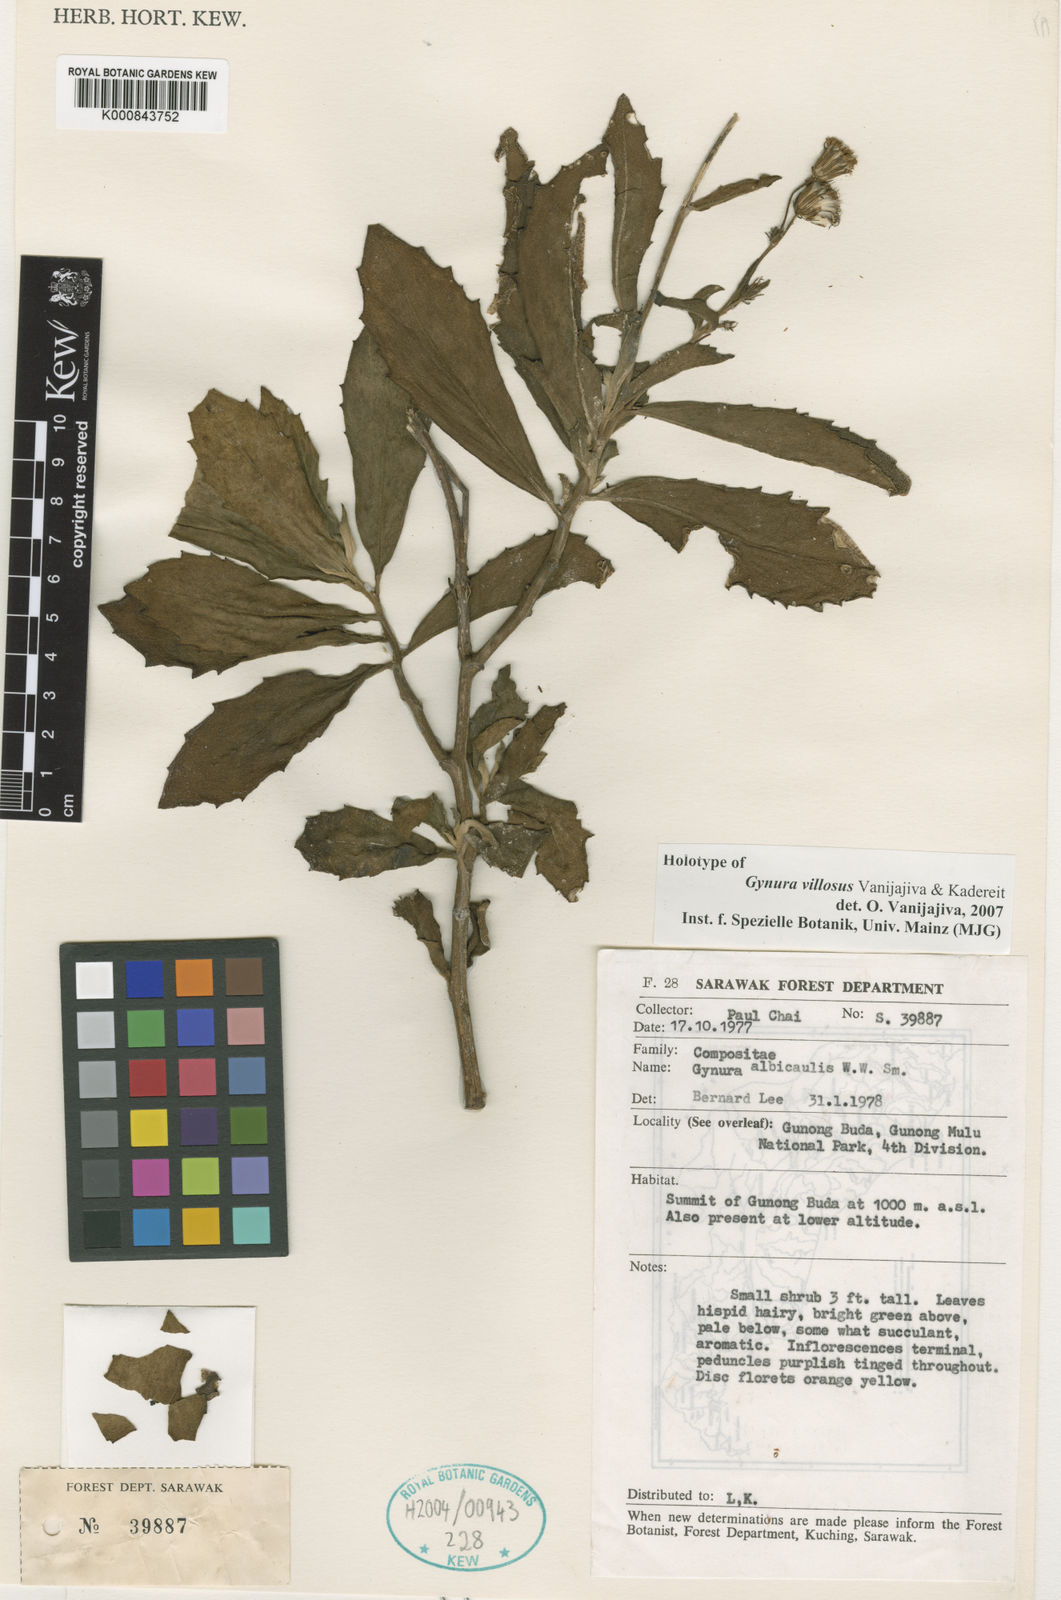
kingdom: Plantae
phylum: Tracheophyta
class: Magnoliopsida
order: Asterales
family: Asteraceae
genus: Gynura
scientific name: Gynura villosa
